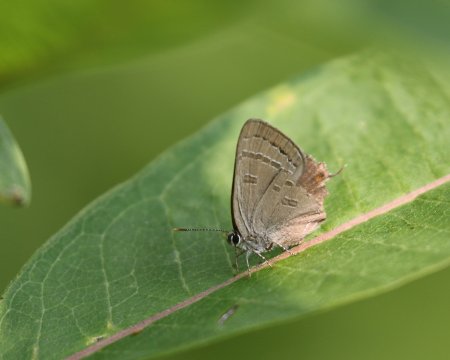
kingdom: Animalia
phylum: Arthropoda
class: Insecta
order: Lepidoptera
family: Lycaenidae
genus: Strymon
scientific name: Strymon caryaevorus
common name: Hickory Hairstreak
